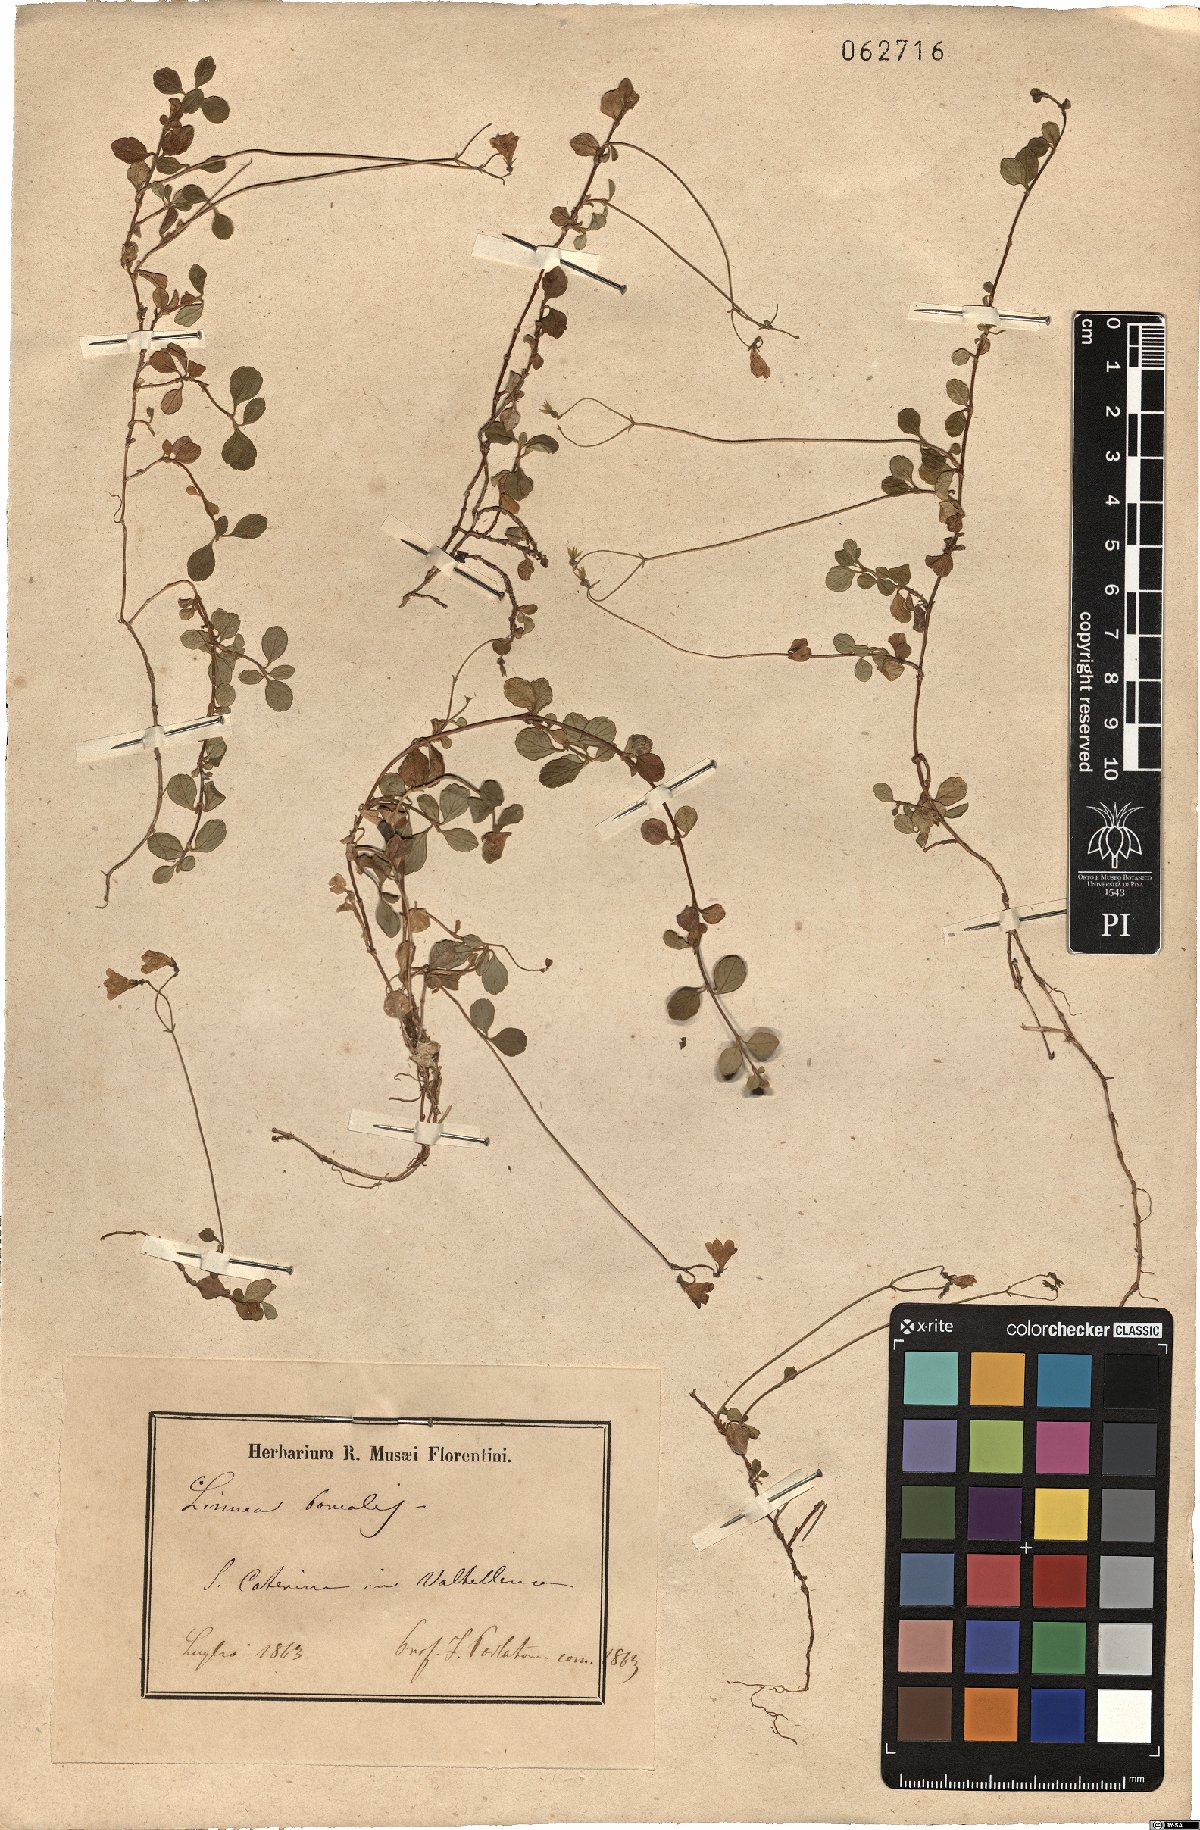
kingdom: Plantae
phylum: Tracheophyta
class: Magnoliopsida
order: Dipsacales
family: Caprifoliaceae
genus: Linnaea
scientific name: Linnaea borealis
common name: Twinflower
